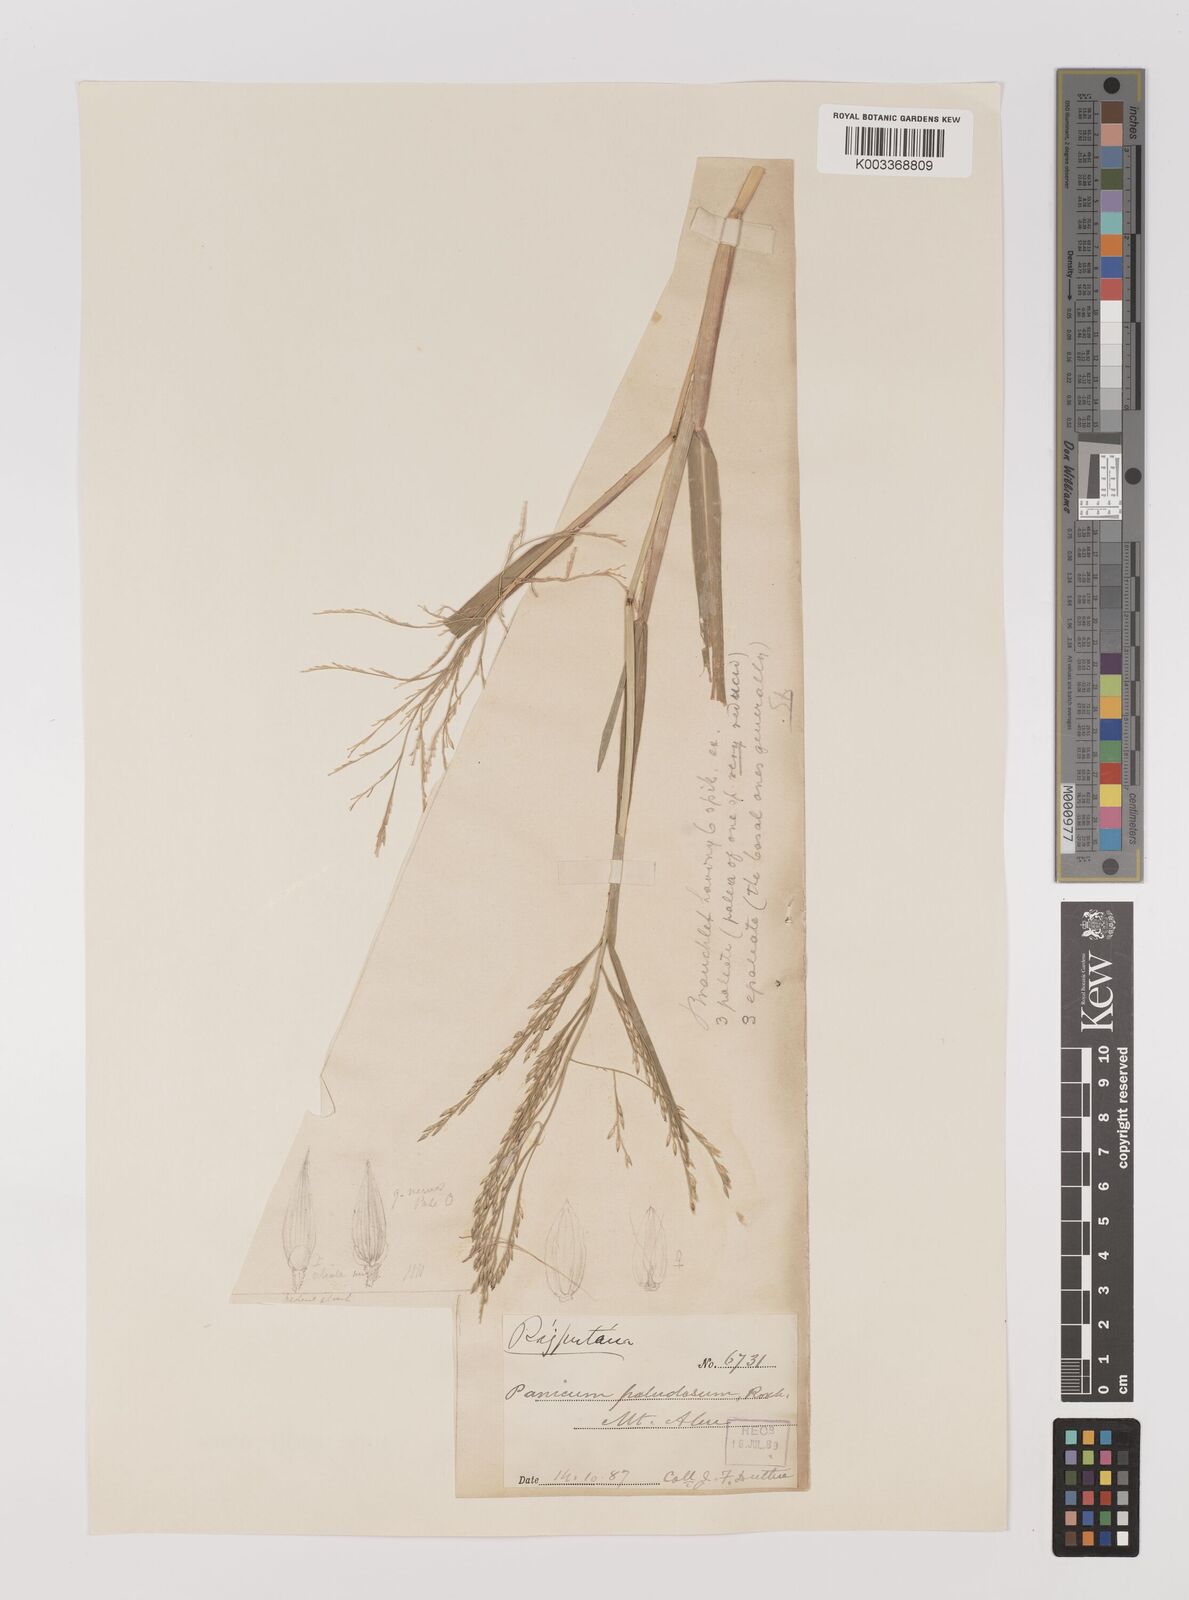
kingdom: Plantae
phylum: Tracheophyta
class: Liliopsida
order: Poales
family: Poaceae
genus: Louisiella
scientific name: Louisiella paludosa
